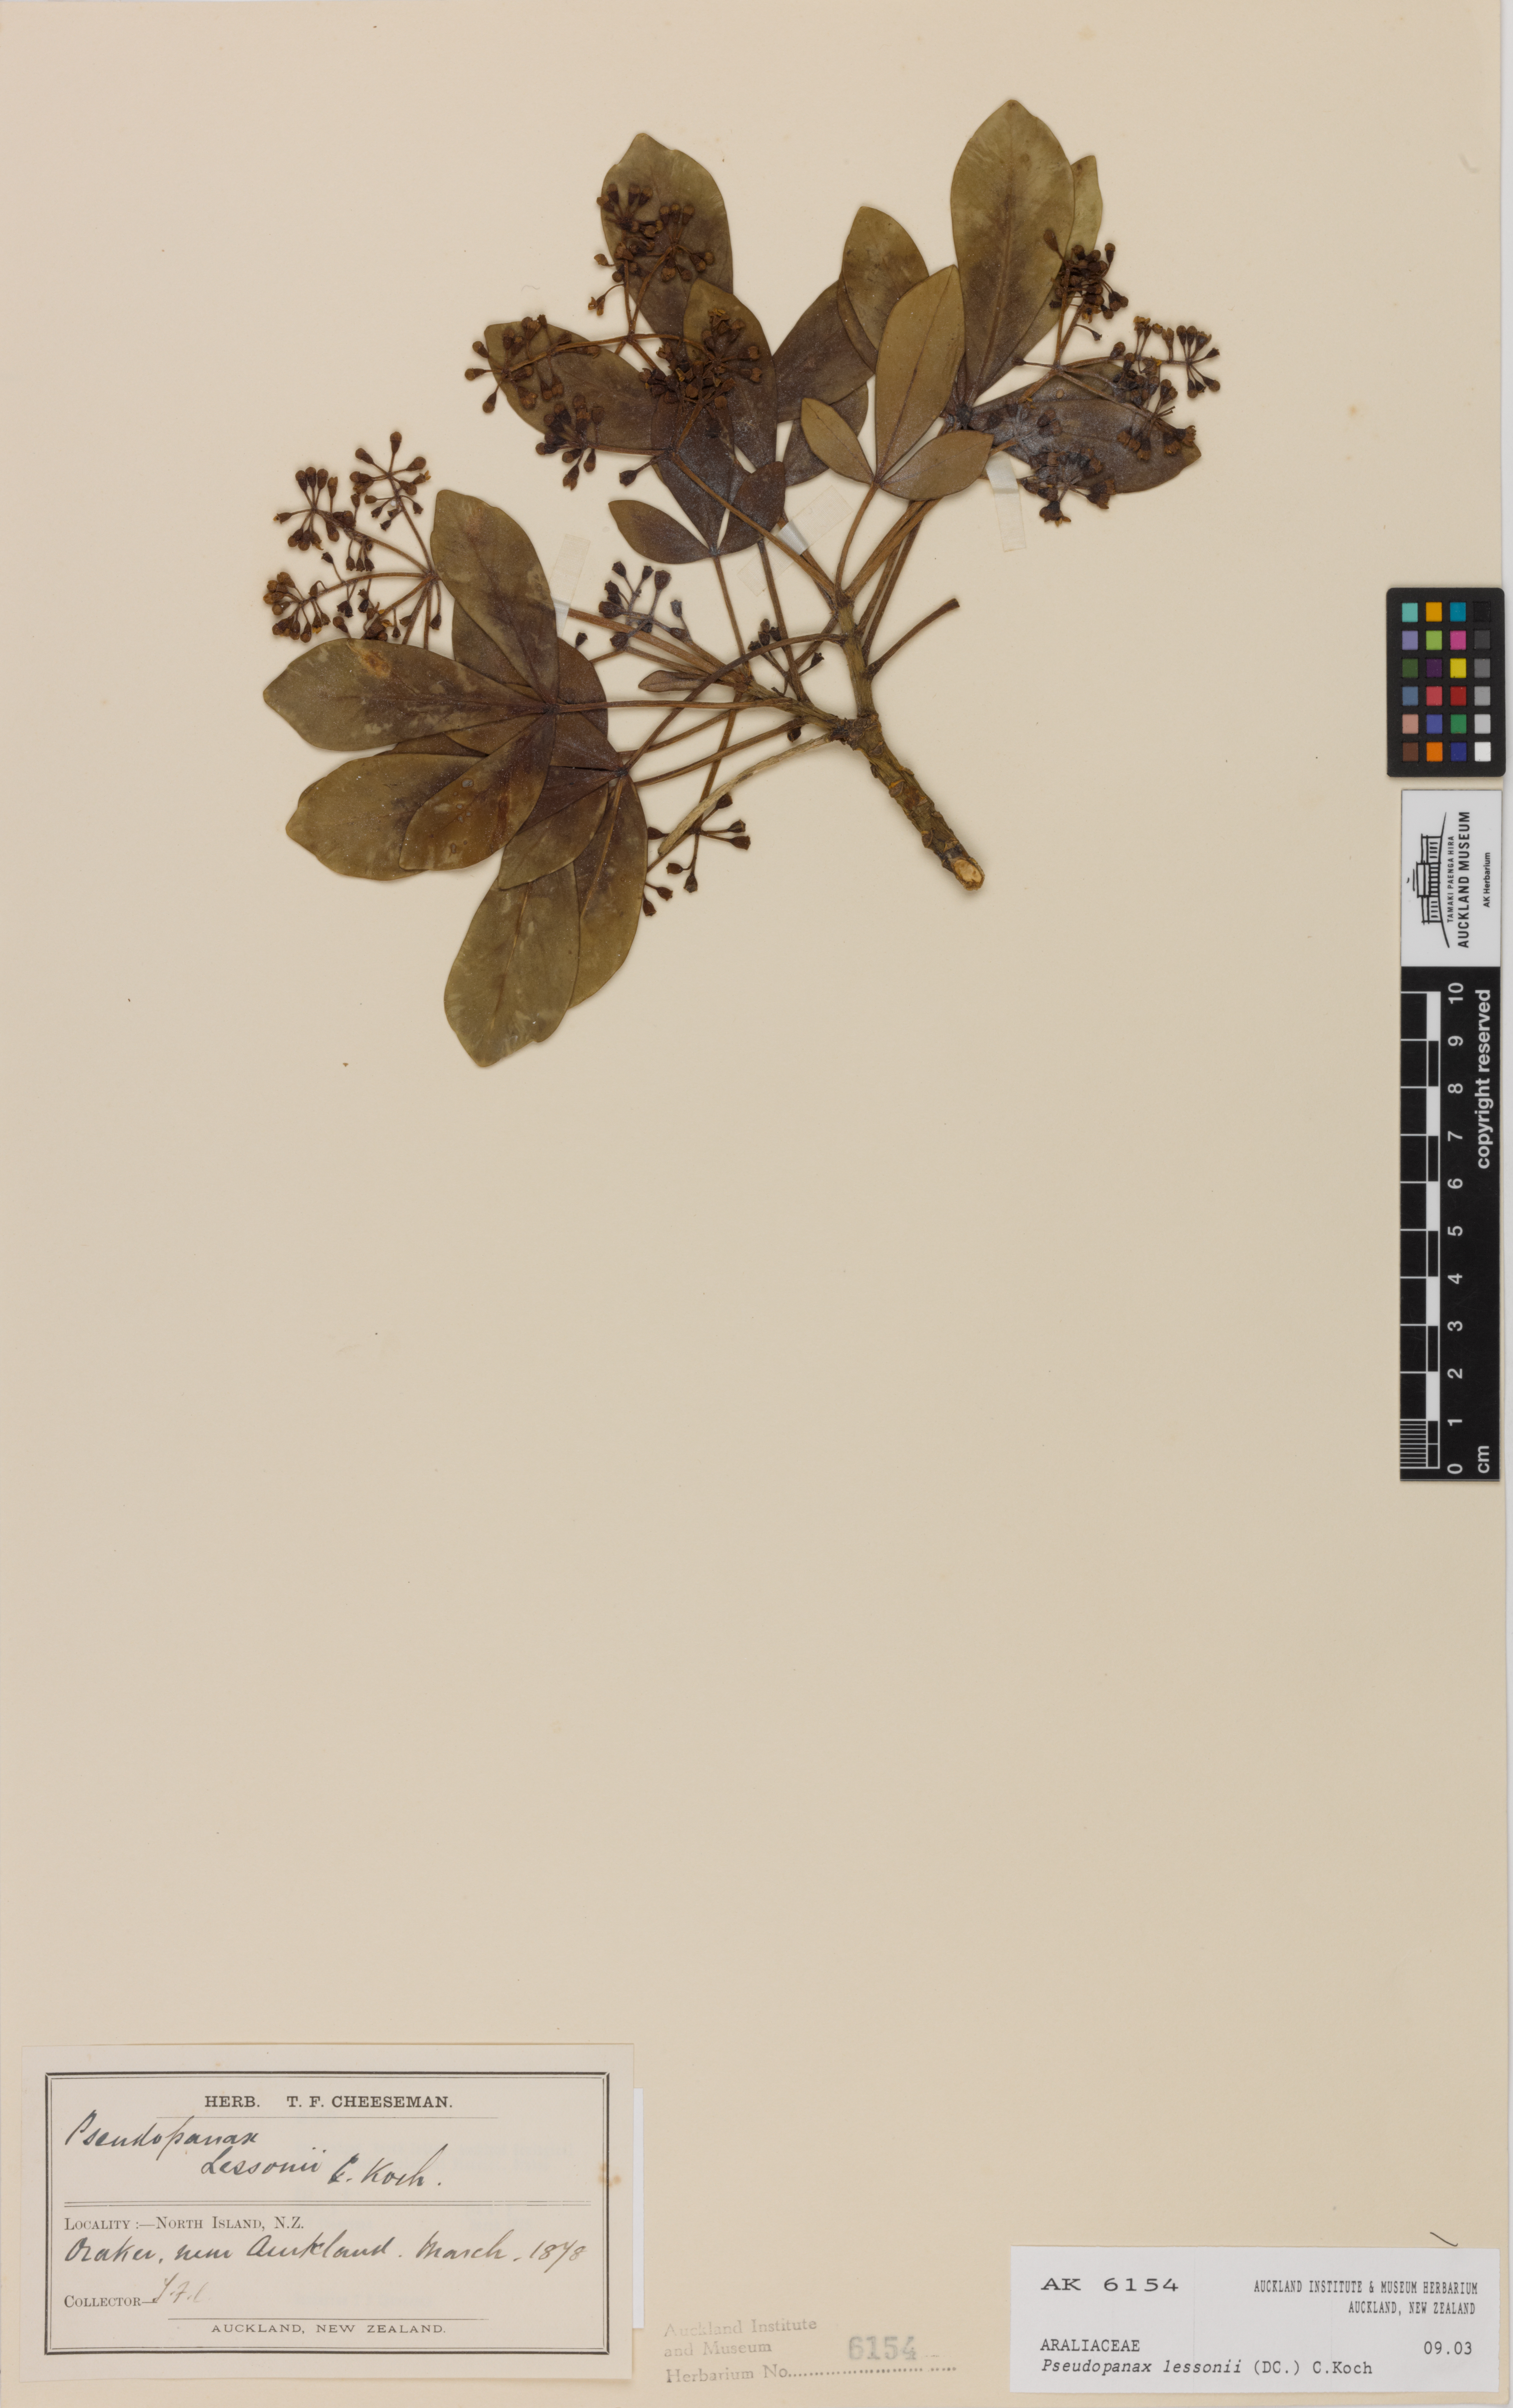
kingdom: Plantae
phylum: Tracheophyta
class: Magnoliopsida
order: Apiales
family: Araliaceae
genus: Pseudopanax
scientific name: Pseudopanax lessonii
